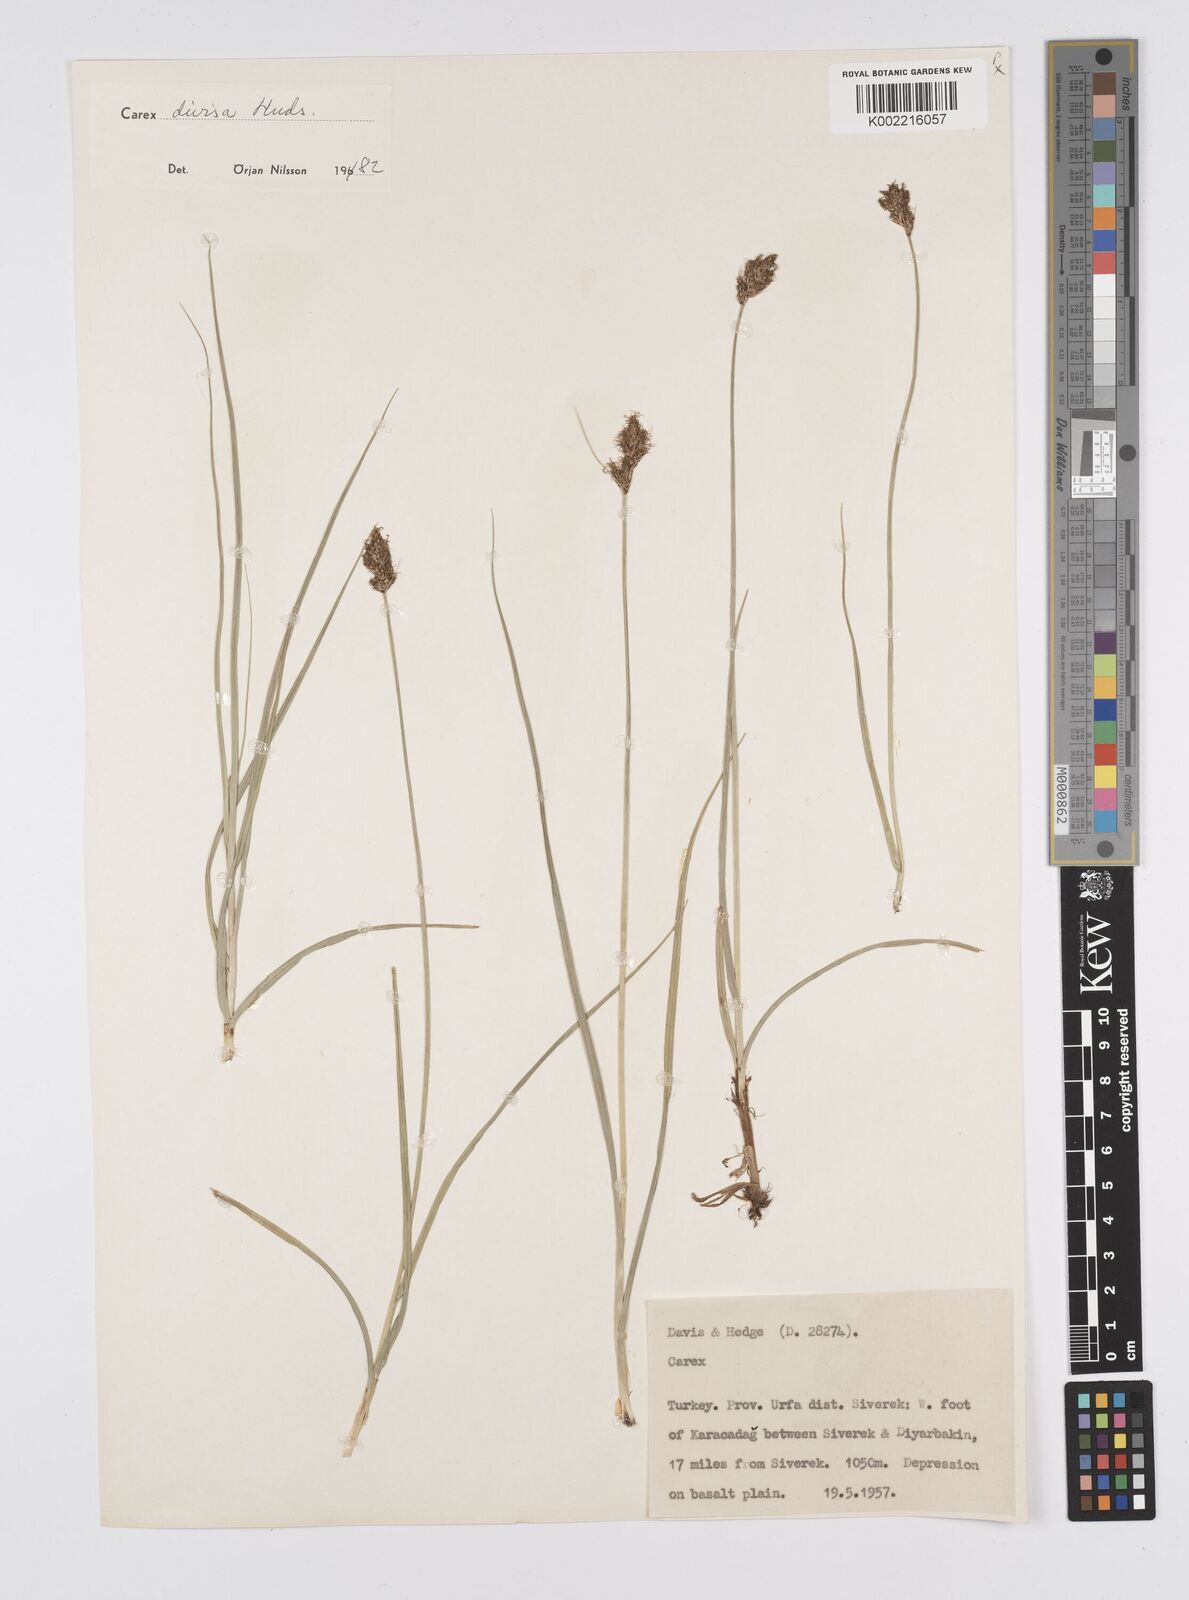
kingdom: Plantae
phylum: Tracheophyta
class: Liliopsida
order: Poales
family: Cyperaceae
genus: Carex
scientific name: Carex divisa
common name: Divided sedge
